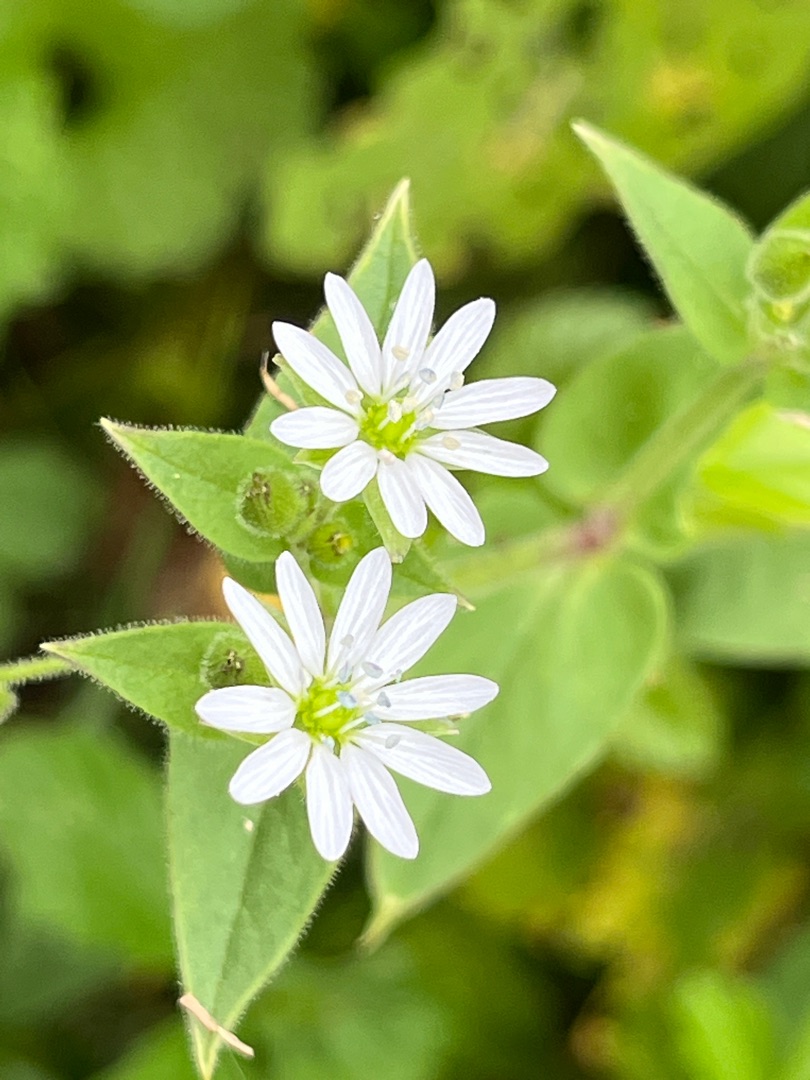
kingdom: Plantae
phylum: Tracheophyta
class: Magnoliopsida
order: Caryophyllales
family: Caryophyllaceae
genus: Stellaria
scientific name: Stellaria aquatica
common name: Kløvkrone
